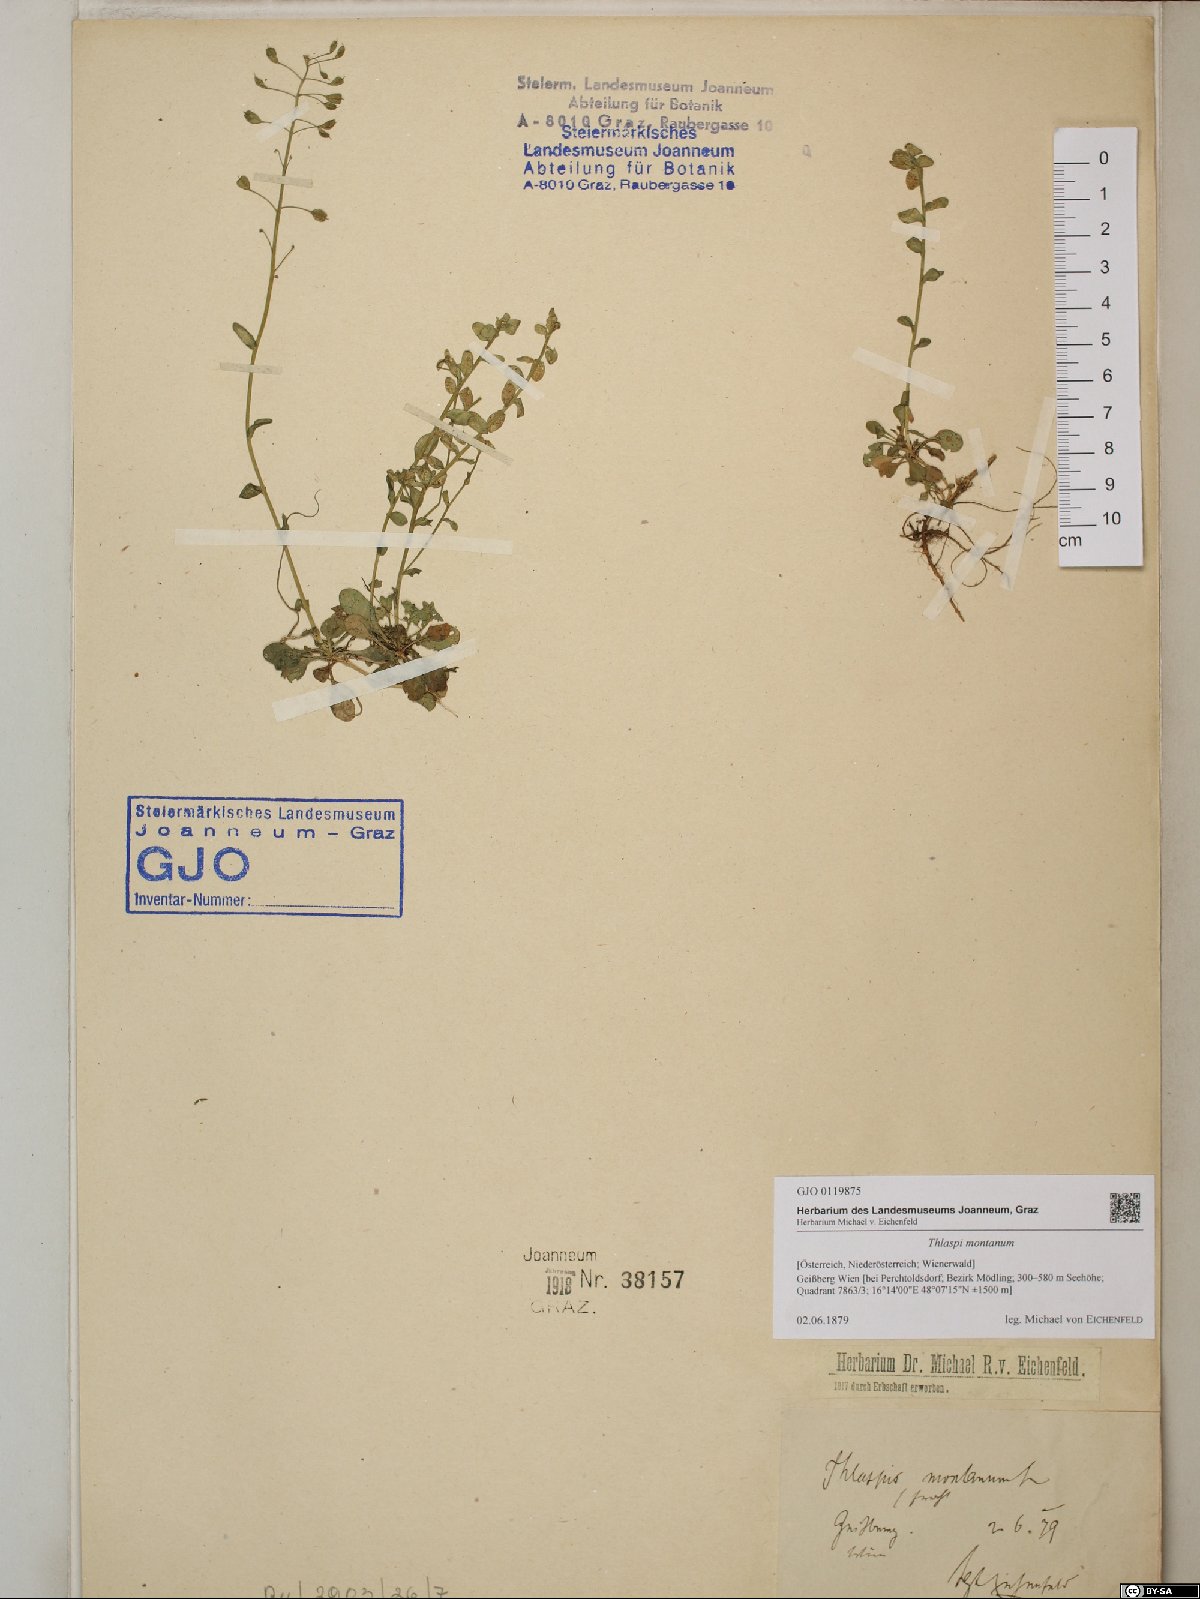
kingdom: Plantae
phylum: Tracheophyta
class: Magnoliopsida
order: Brassicales
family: Brassicaceae
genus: Noccaea
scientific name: Noccaea montana
